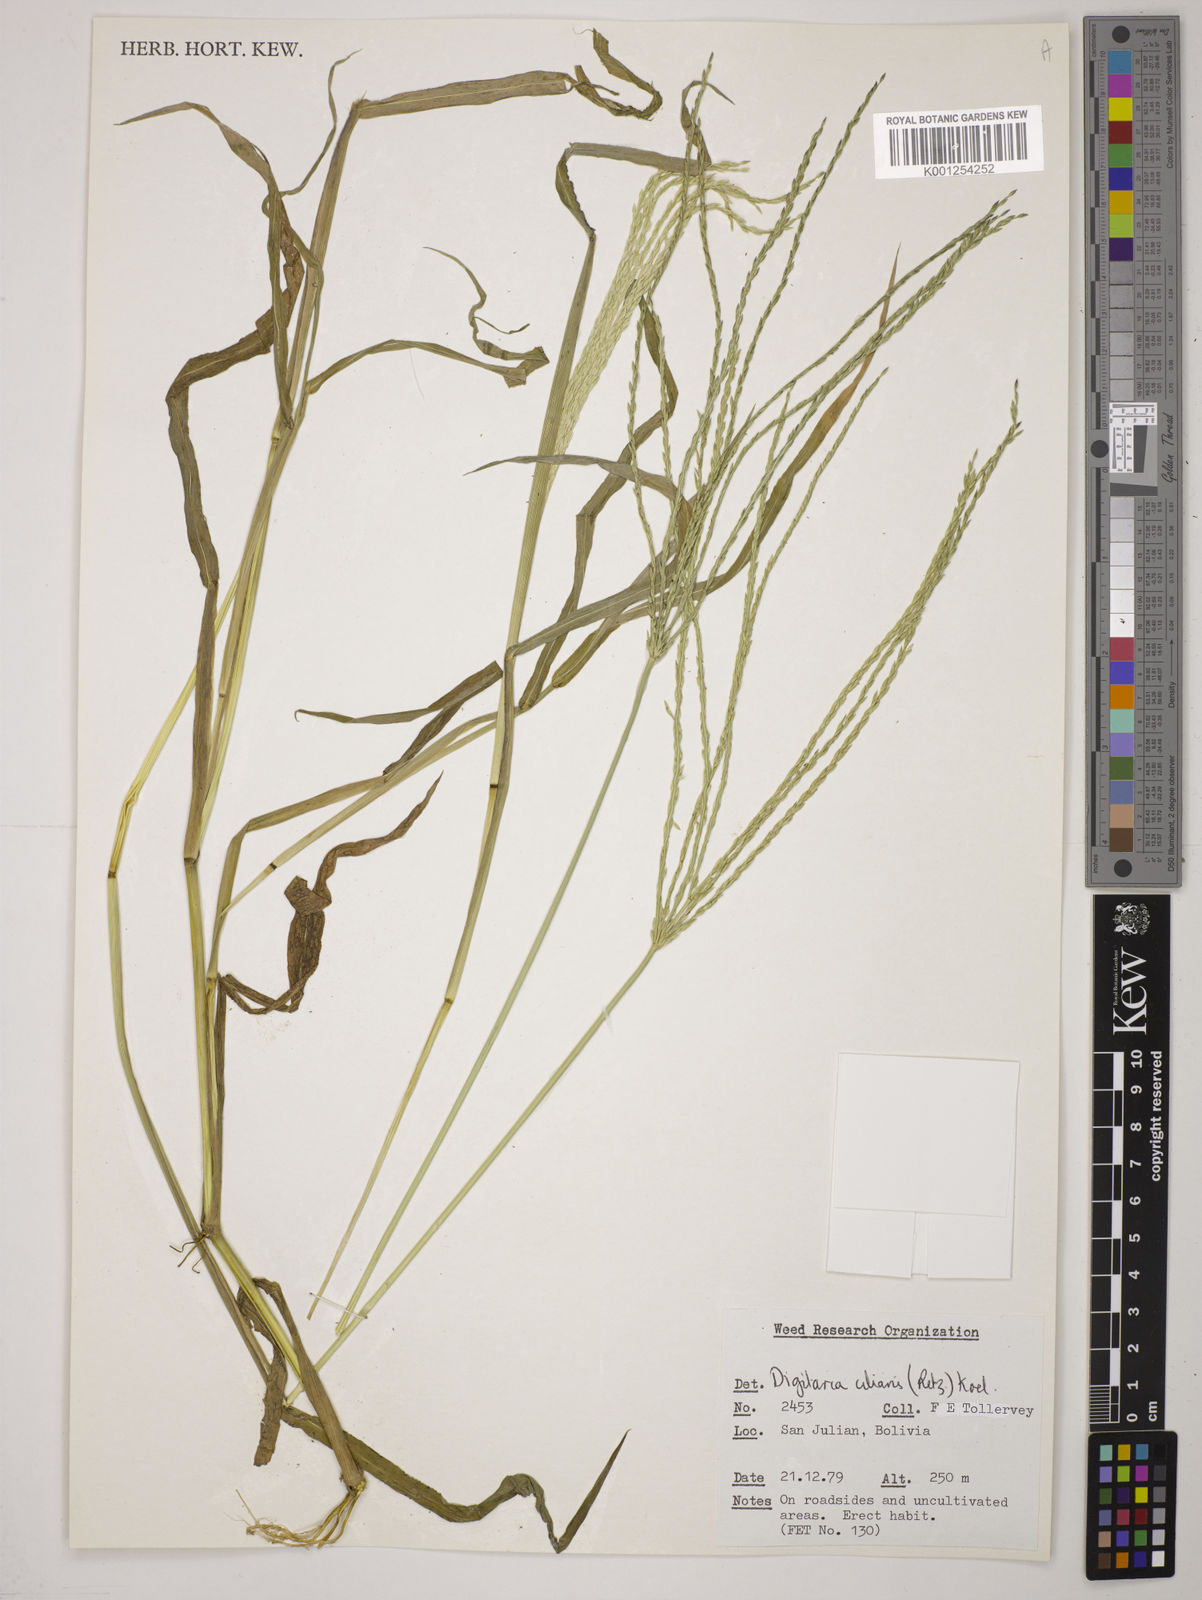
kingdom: Plantae
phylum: Tracheophyta
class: Liliopsida
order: Poales
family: Poaceae
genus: Digitaria
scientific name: Digitaria
